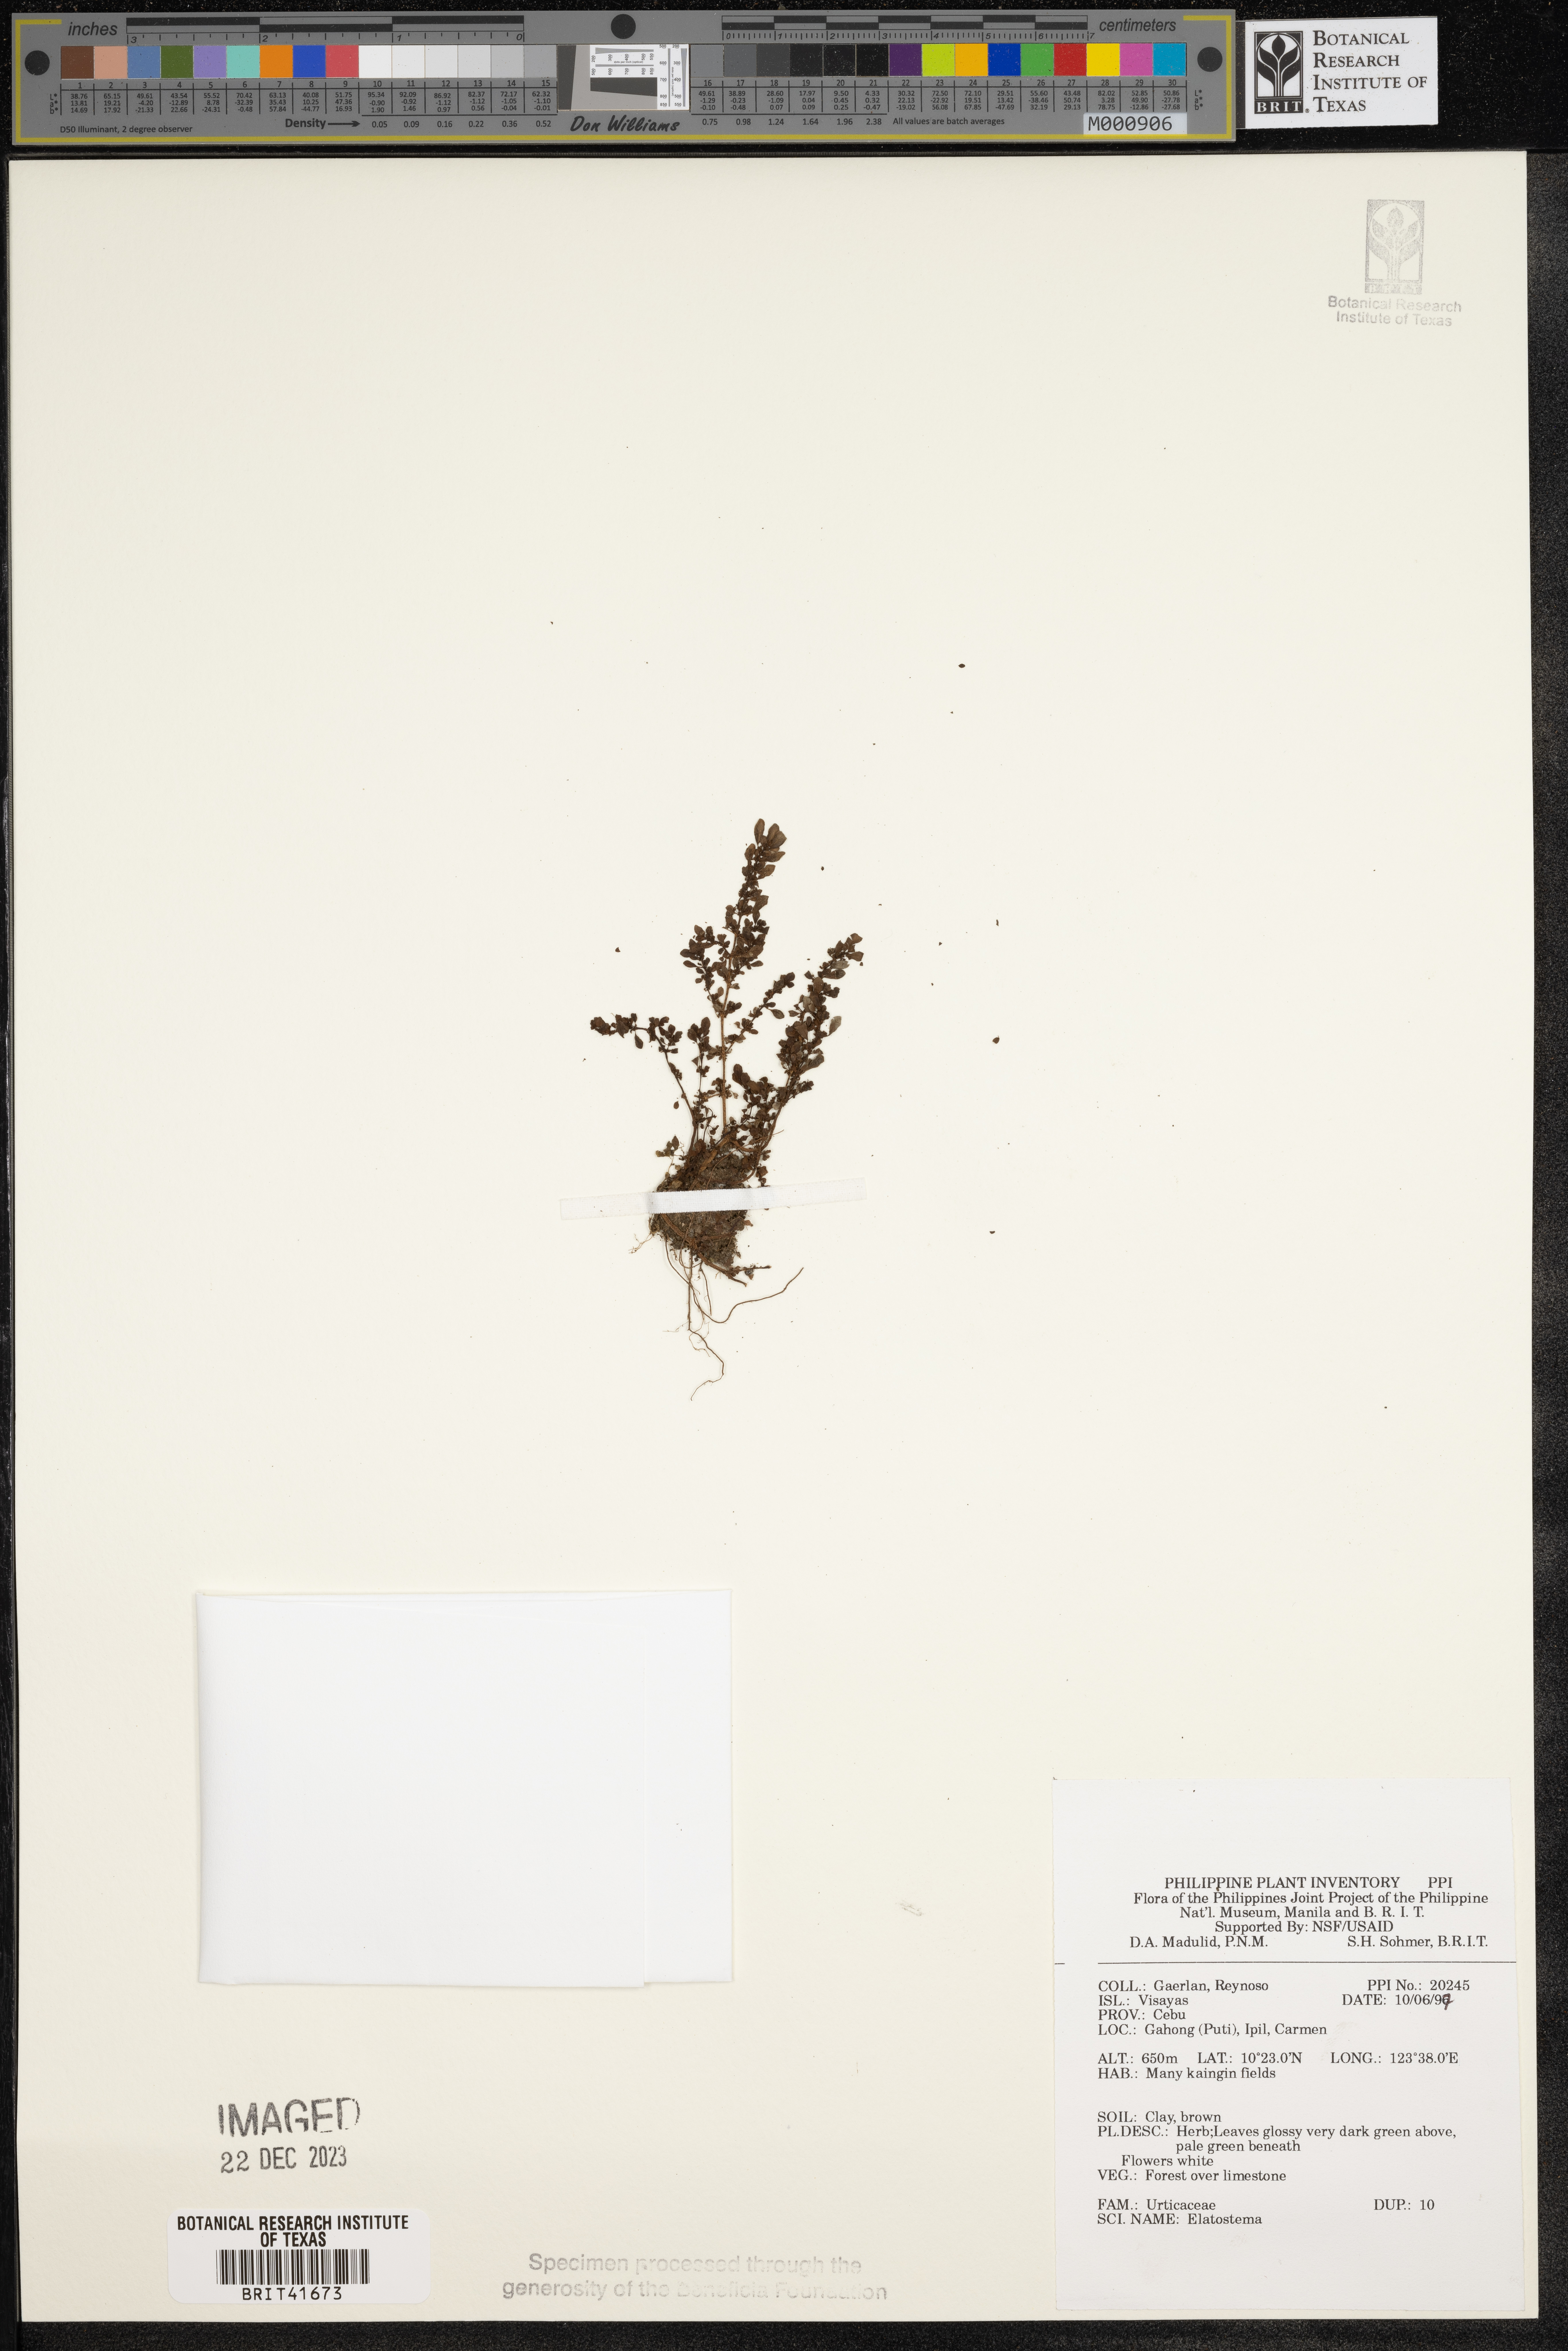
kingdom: Plantae
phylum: Tracheophyta
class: Magnoliopsida
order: Rosales
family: Urticaceae
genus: Elatostema
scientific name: Elatostema
